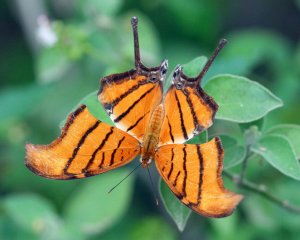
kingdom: Animalia
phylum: Arthropoda
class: Insecta
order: Lepidoptera
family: Nymphalidae
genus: Marpesia
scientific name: Marpesia petreus
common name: Ruddy Daggerwing
